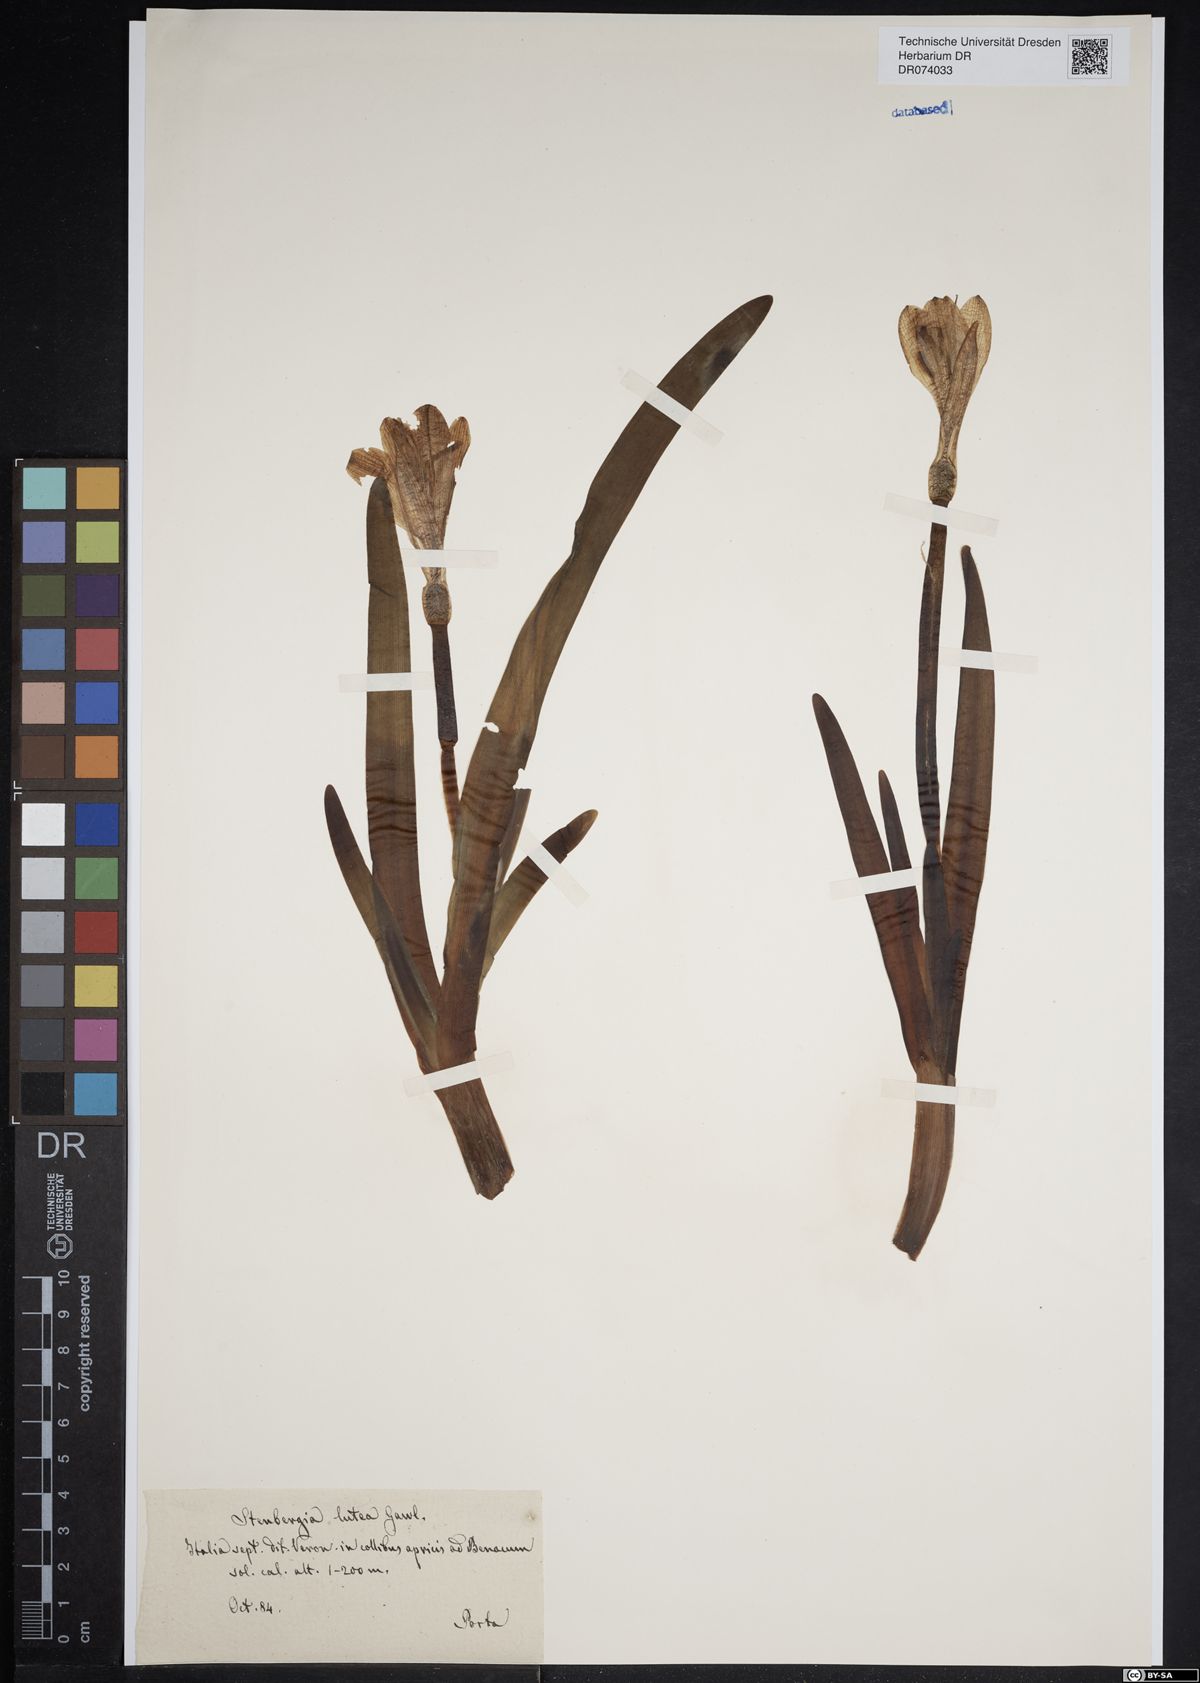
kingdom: Plantae
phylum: Tracheophyta
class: Liliopsida
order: Asparagales
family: Amaryllidaceae
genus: Sternbergia
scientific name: Sternbergia lutea
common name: Winter daffodil
